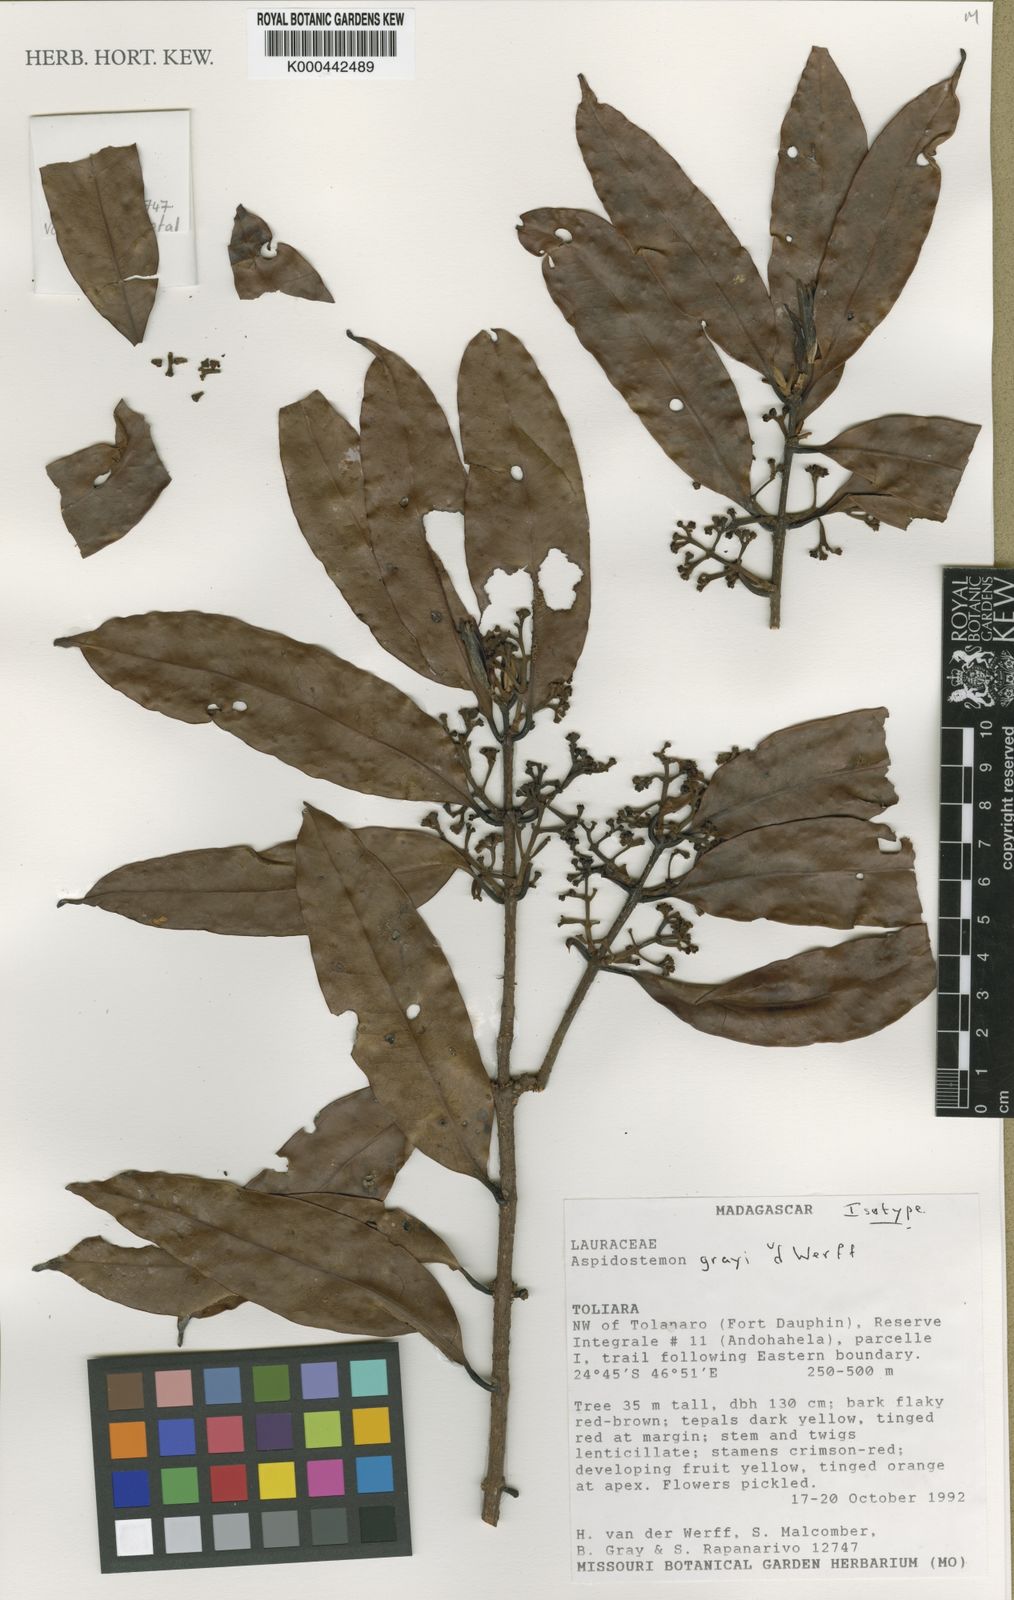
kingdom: Plantae
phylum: Tracheophyta
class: Magnoliopsida
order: Laurales
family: Lauraceae
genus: Aspidostemon
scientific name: Aspidostemon grayi
